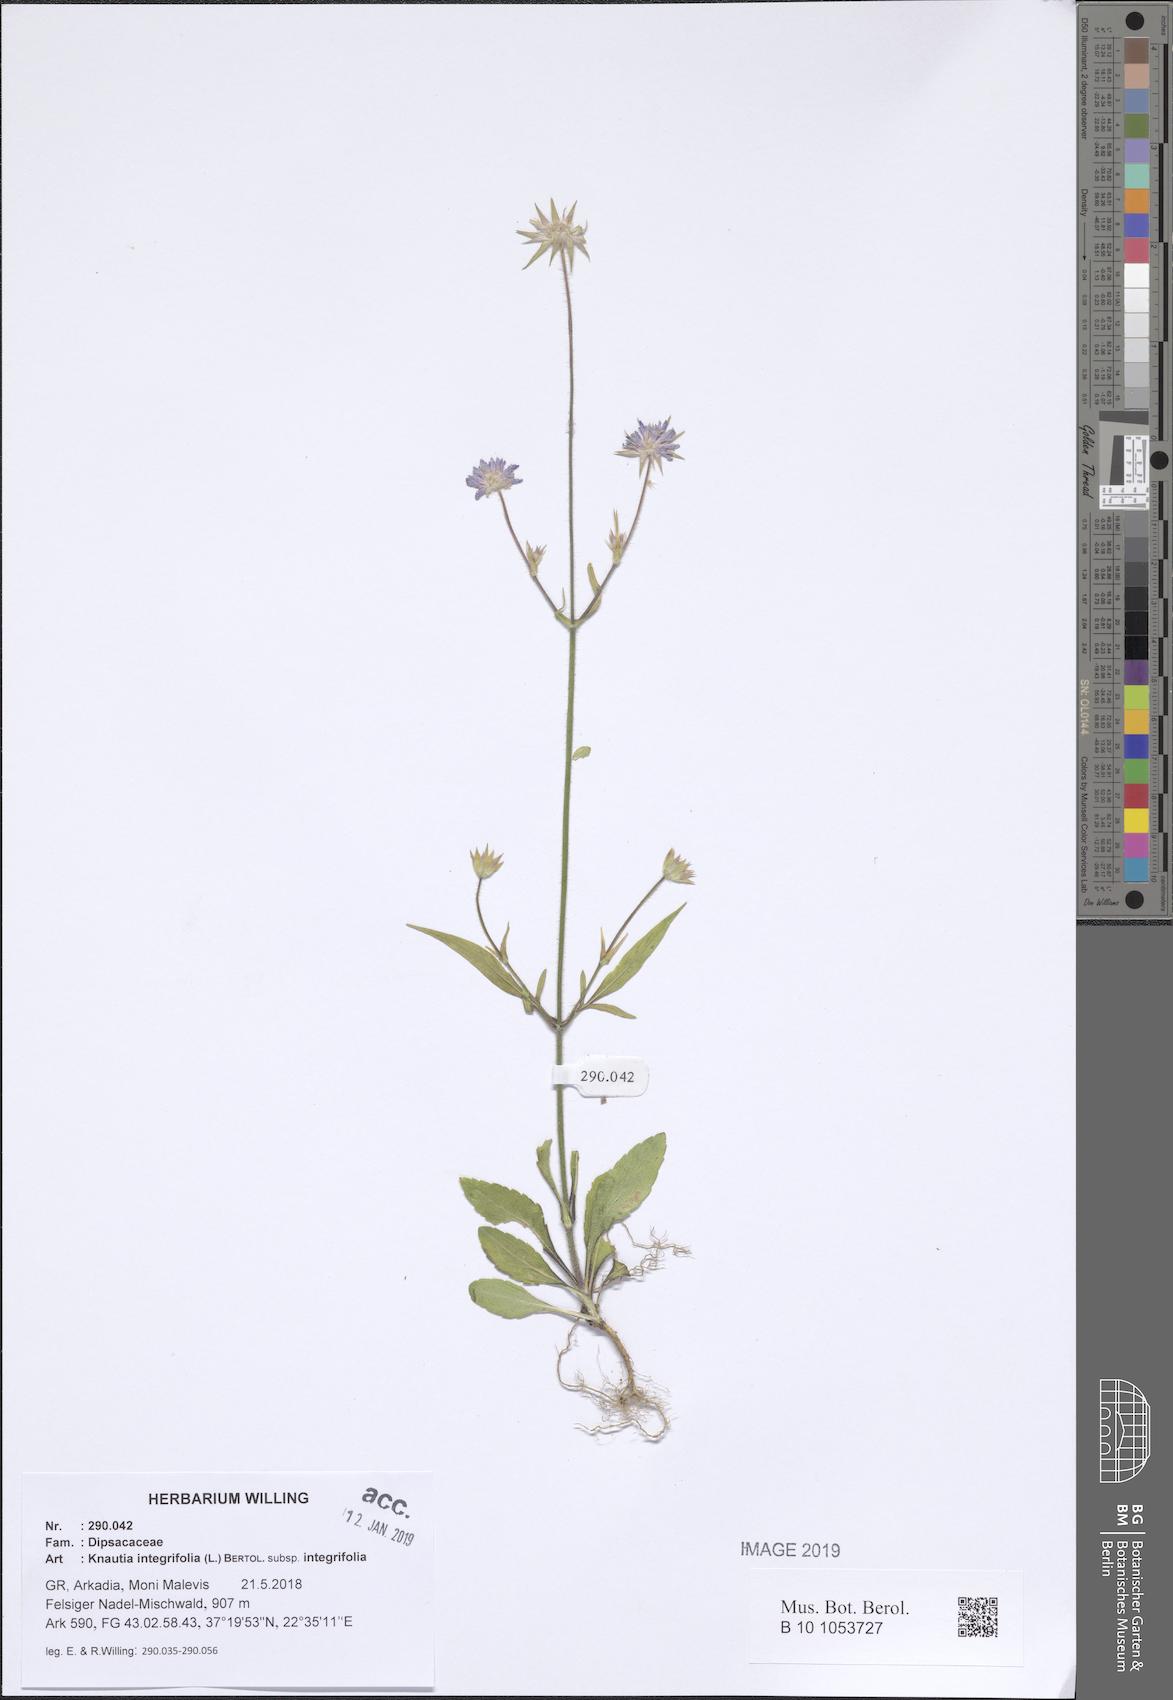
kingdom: Plantae
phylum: Tracheophyta
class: Magnoliopsida
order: Dipsacales
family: Caprifoliaceae
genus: Knautia
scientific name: Knautia integrifolia
